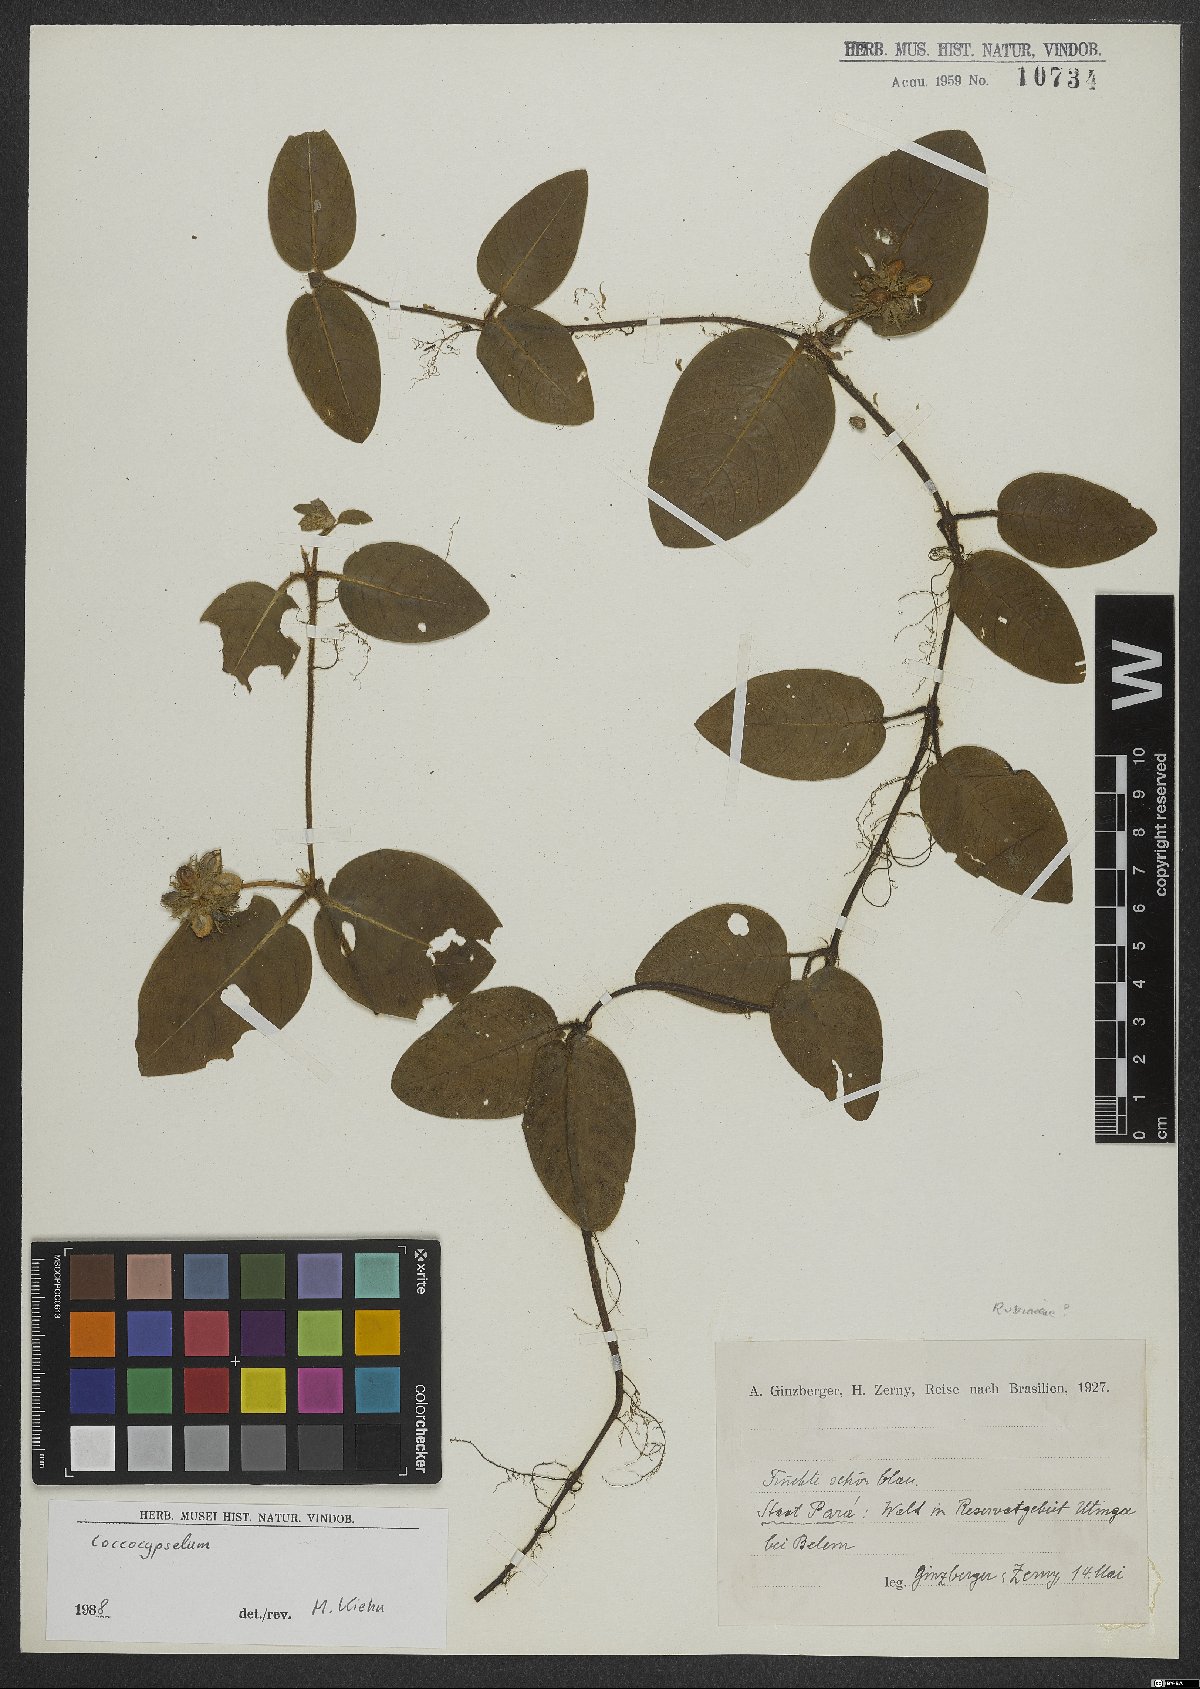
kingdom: Plantae
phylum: Tracheophyta
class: Magnoliopsida
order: Gentianales
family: Rubiaceae
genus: Coccocypselum
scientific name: Coccocypselum
